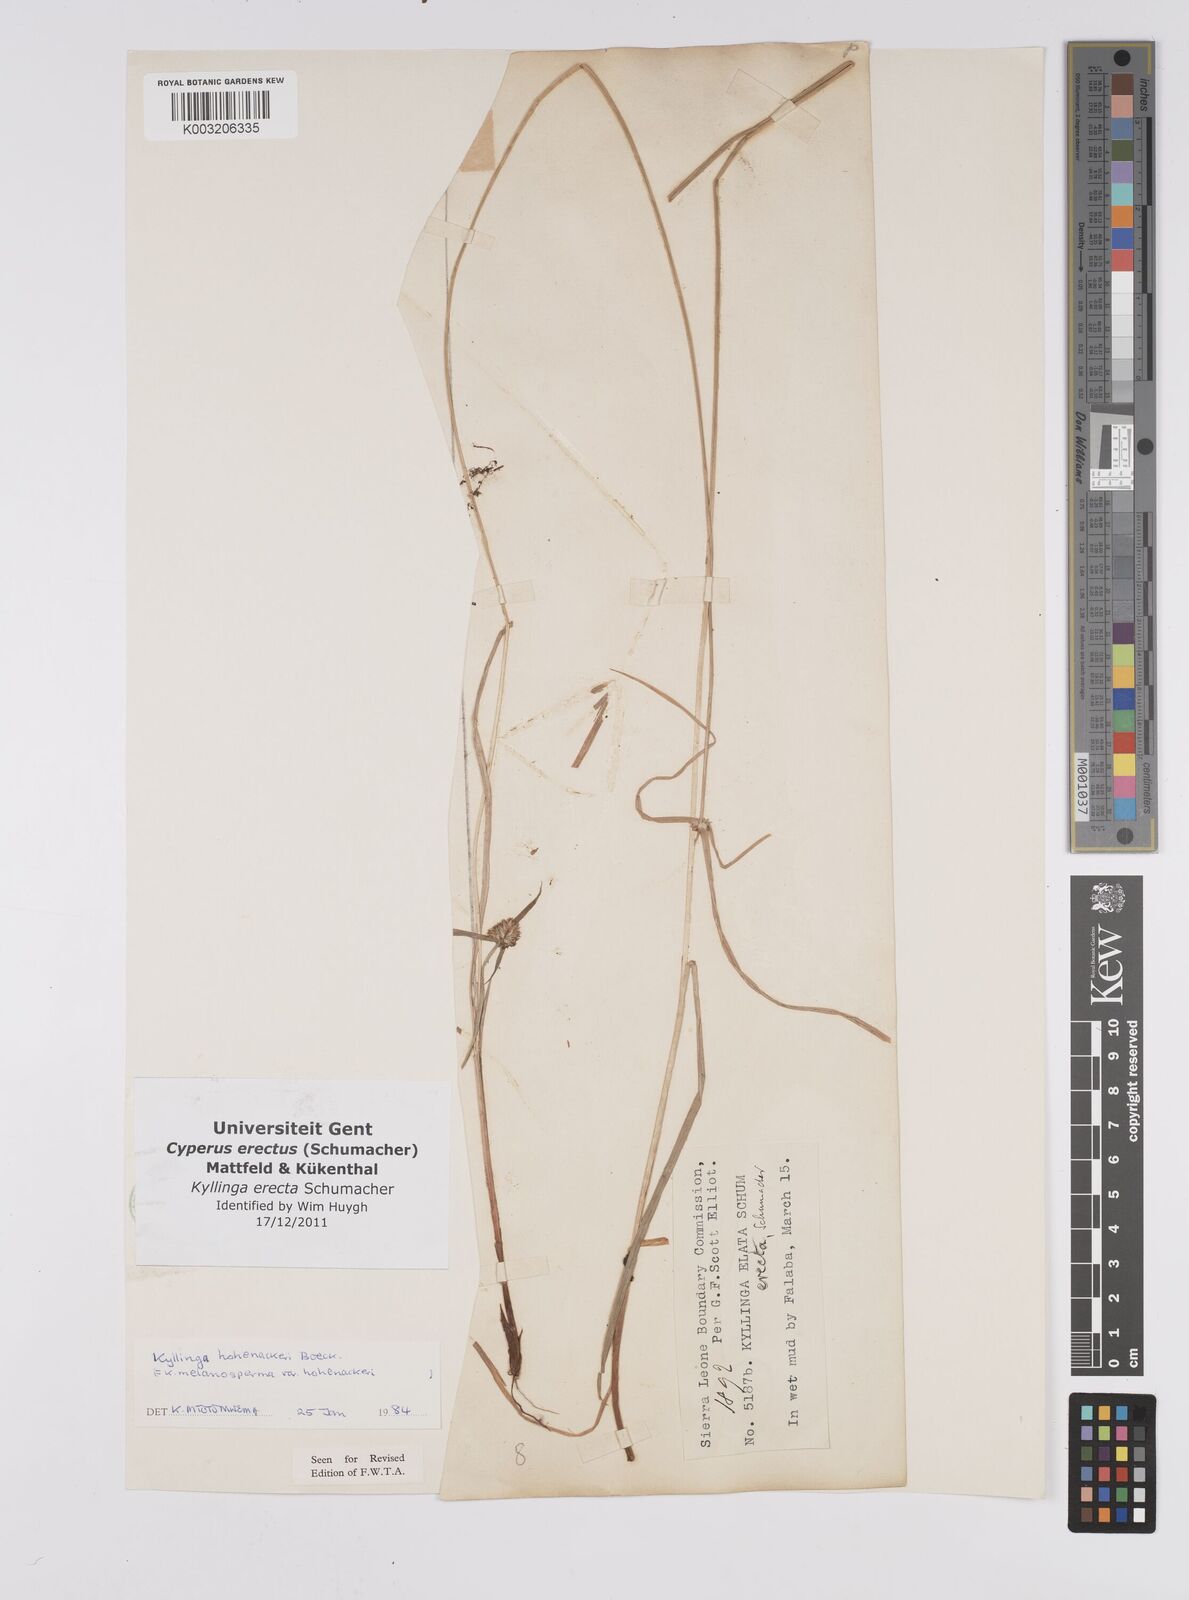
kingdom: Plantae
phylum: Tracheophyta
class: Liliopsida
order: Poales
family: Cyperaceae
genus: Cyperus
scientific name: Cyperus erectus
